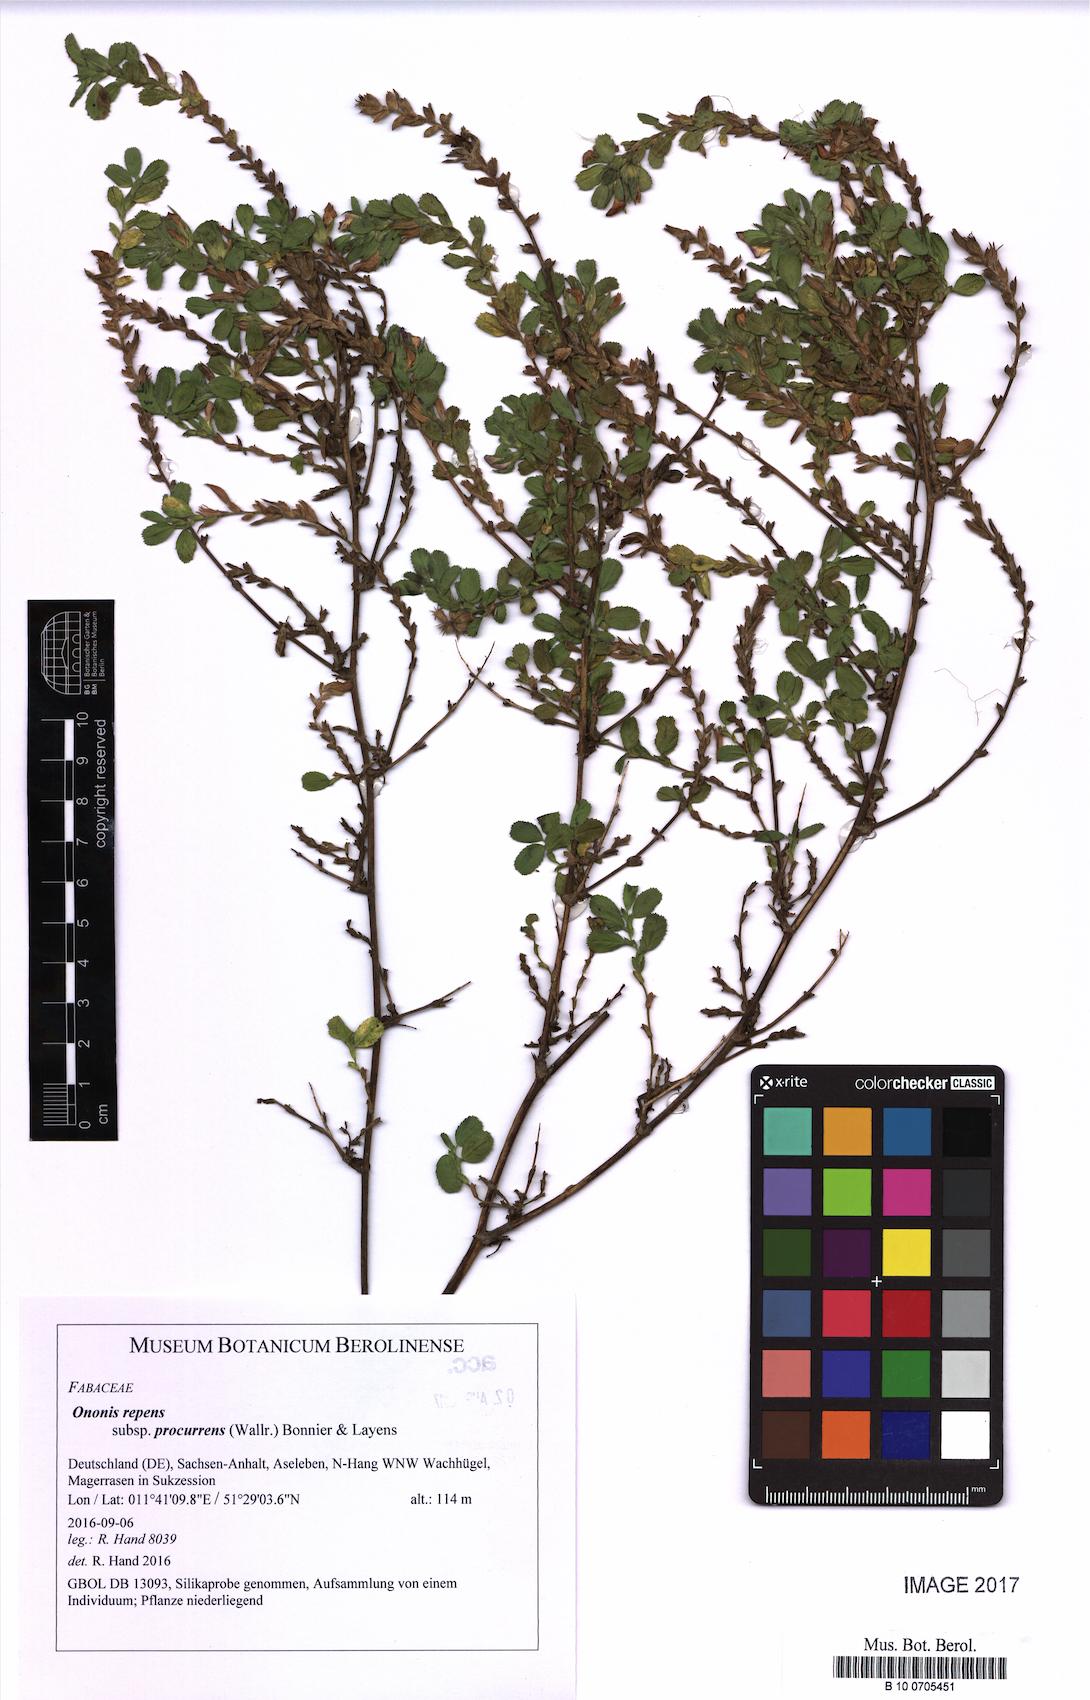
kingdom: Plantae
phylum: Tracheophyta
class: Magnoliopsida
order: Fabales
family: Fabaceae
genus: Ononis
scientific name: Ononis spinosa
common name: Spiny restharrow
